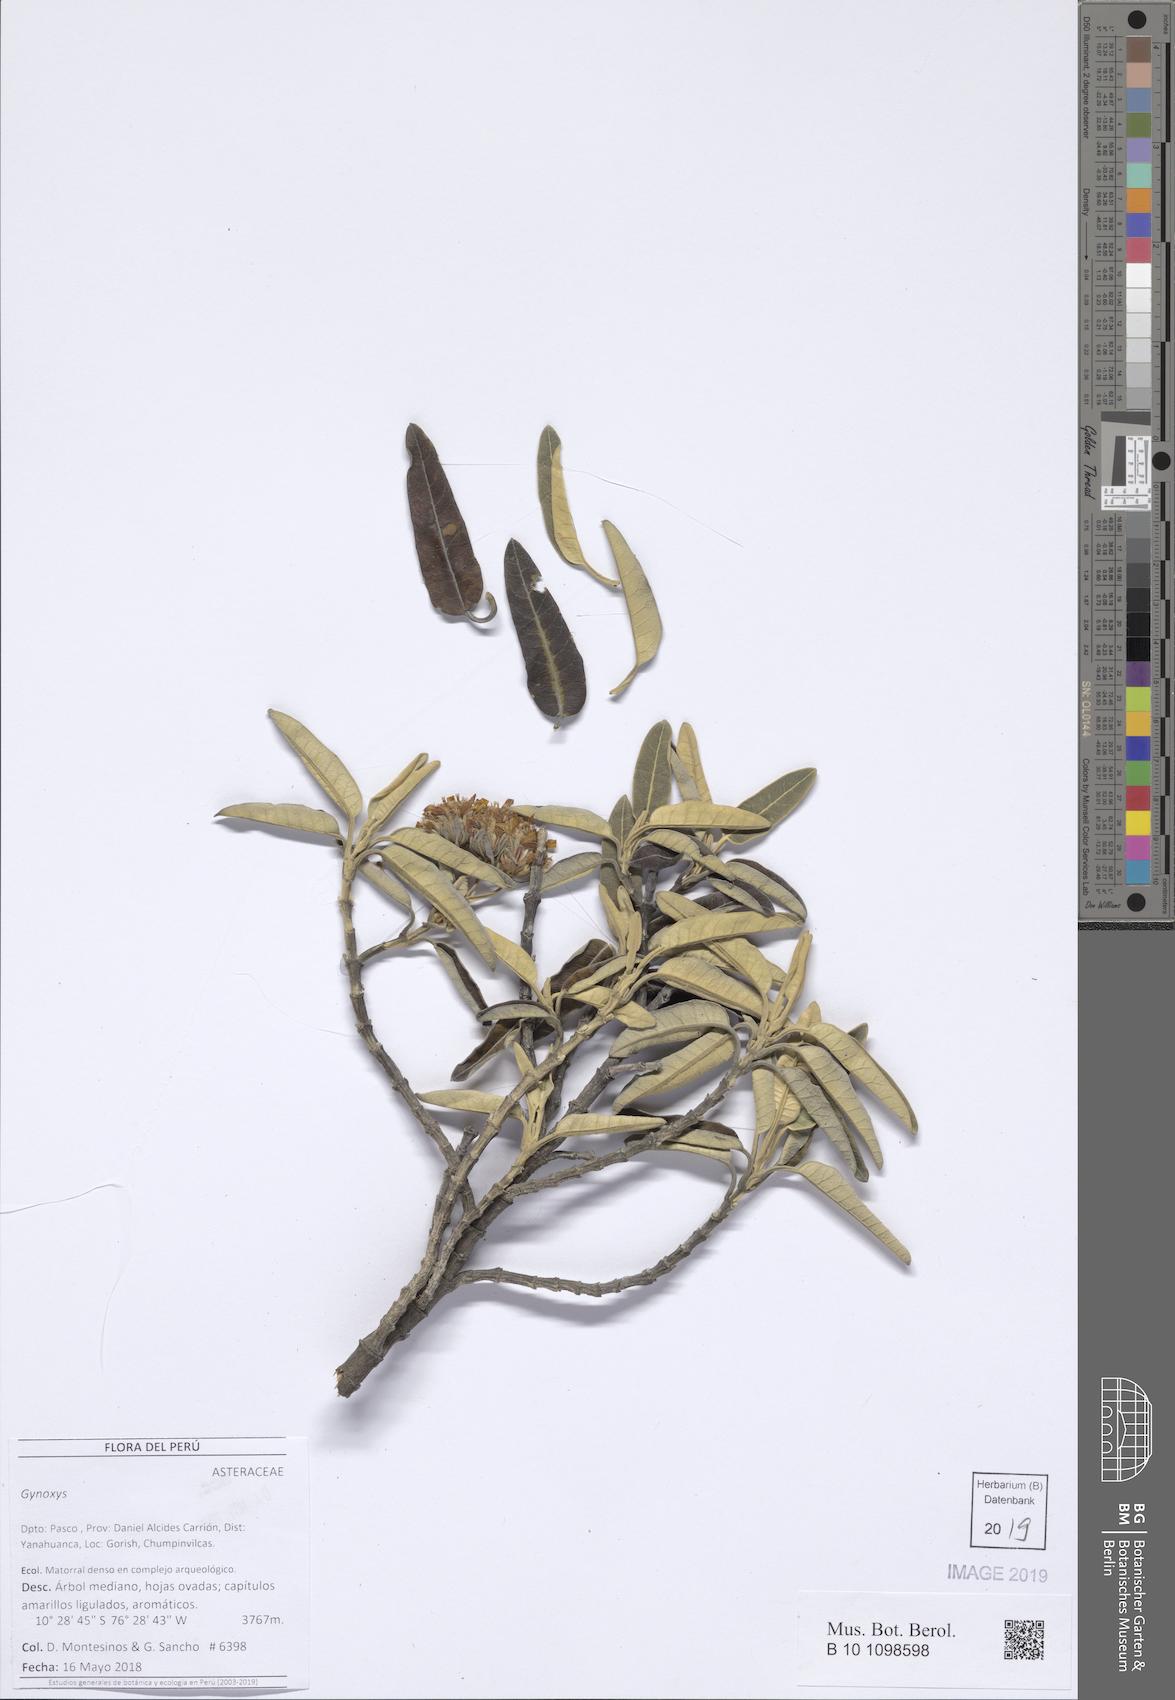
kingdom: Plantae
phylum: Tracheophyta
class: Magnoliopsida
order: Asterales
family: Asteraceae
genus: Gynoxys
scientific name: Gynoxys ferreyrae
